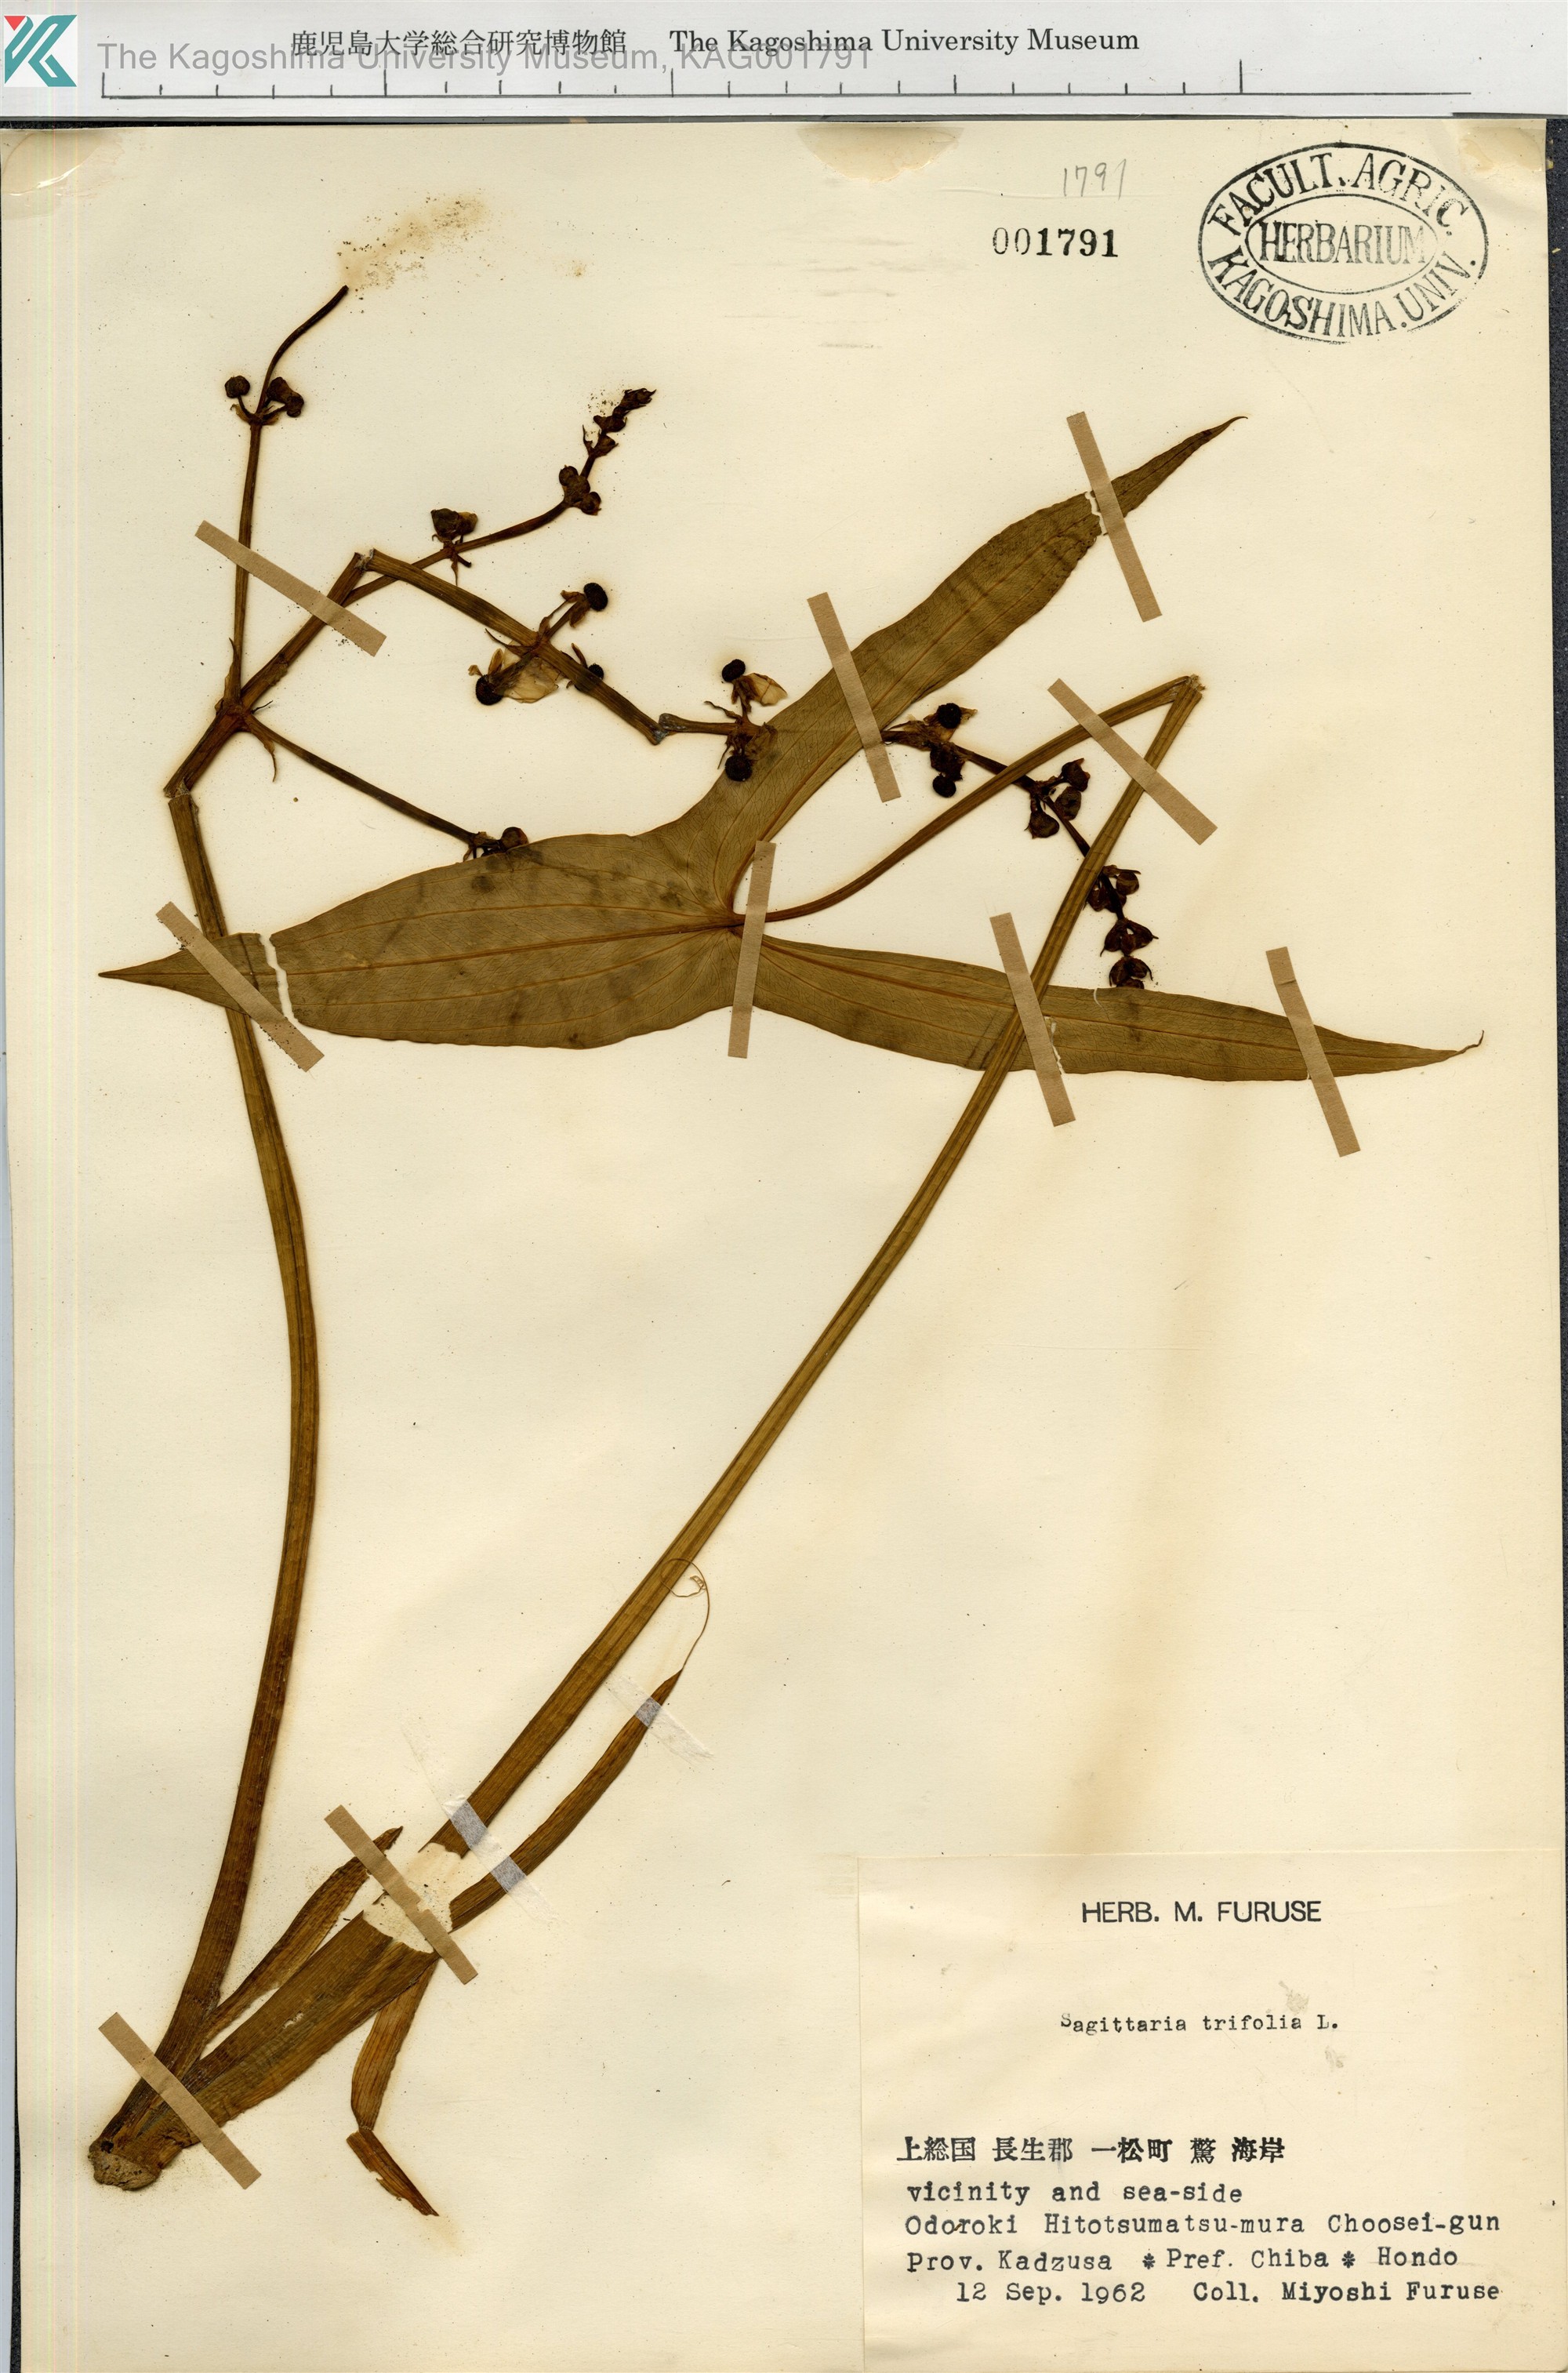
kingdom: Plantae
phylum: Tracheophyta
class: Liliopsida
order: Alismatales
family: Alismataceae
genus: Sagittaria
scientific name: Sagittaria trifolia
